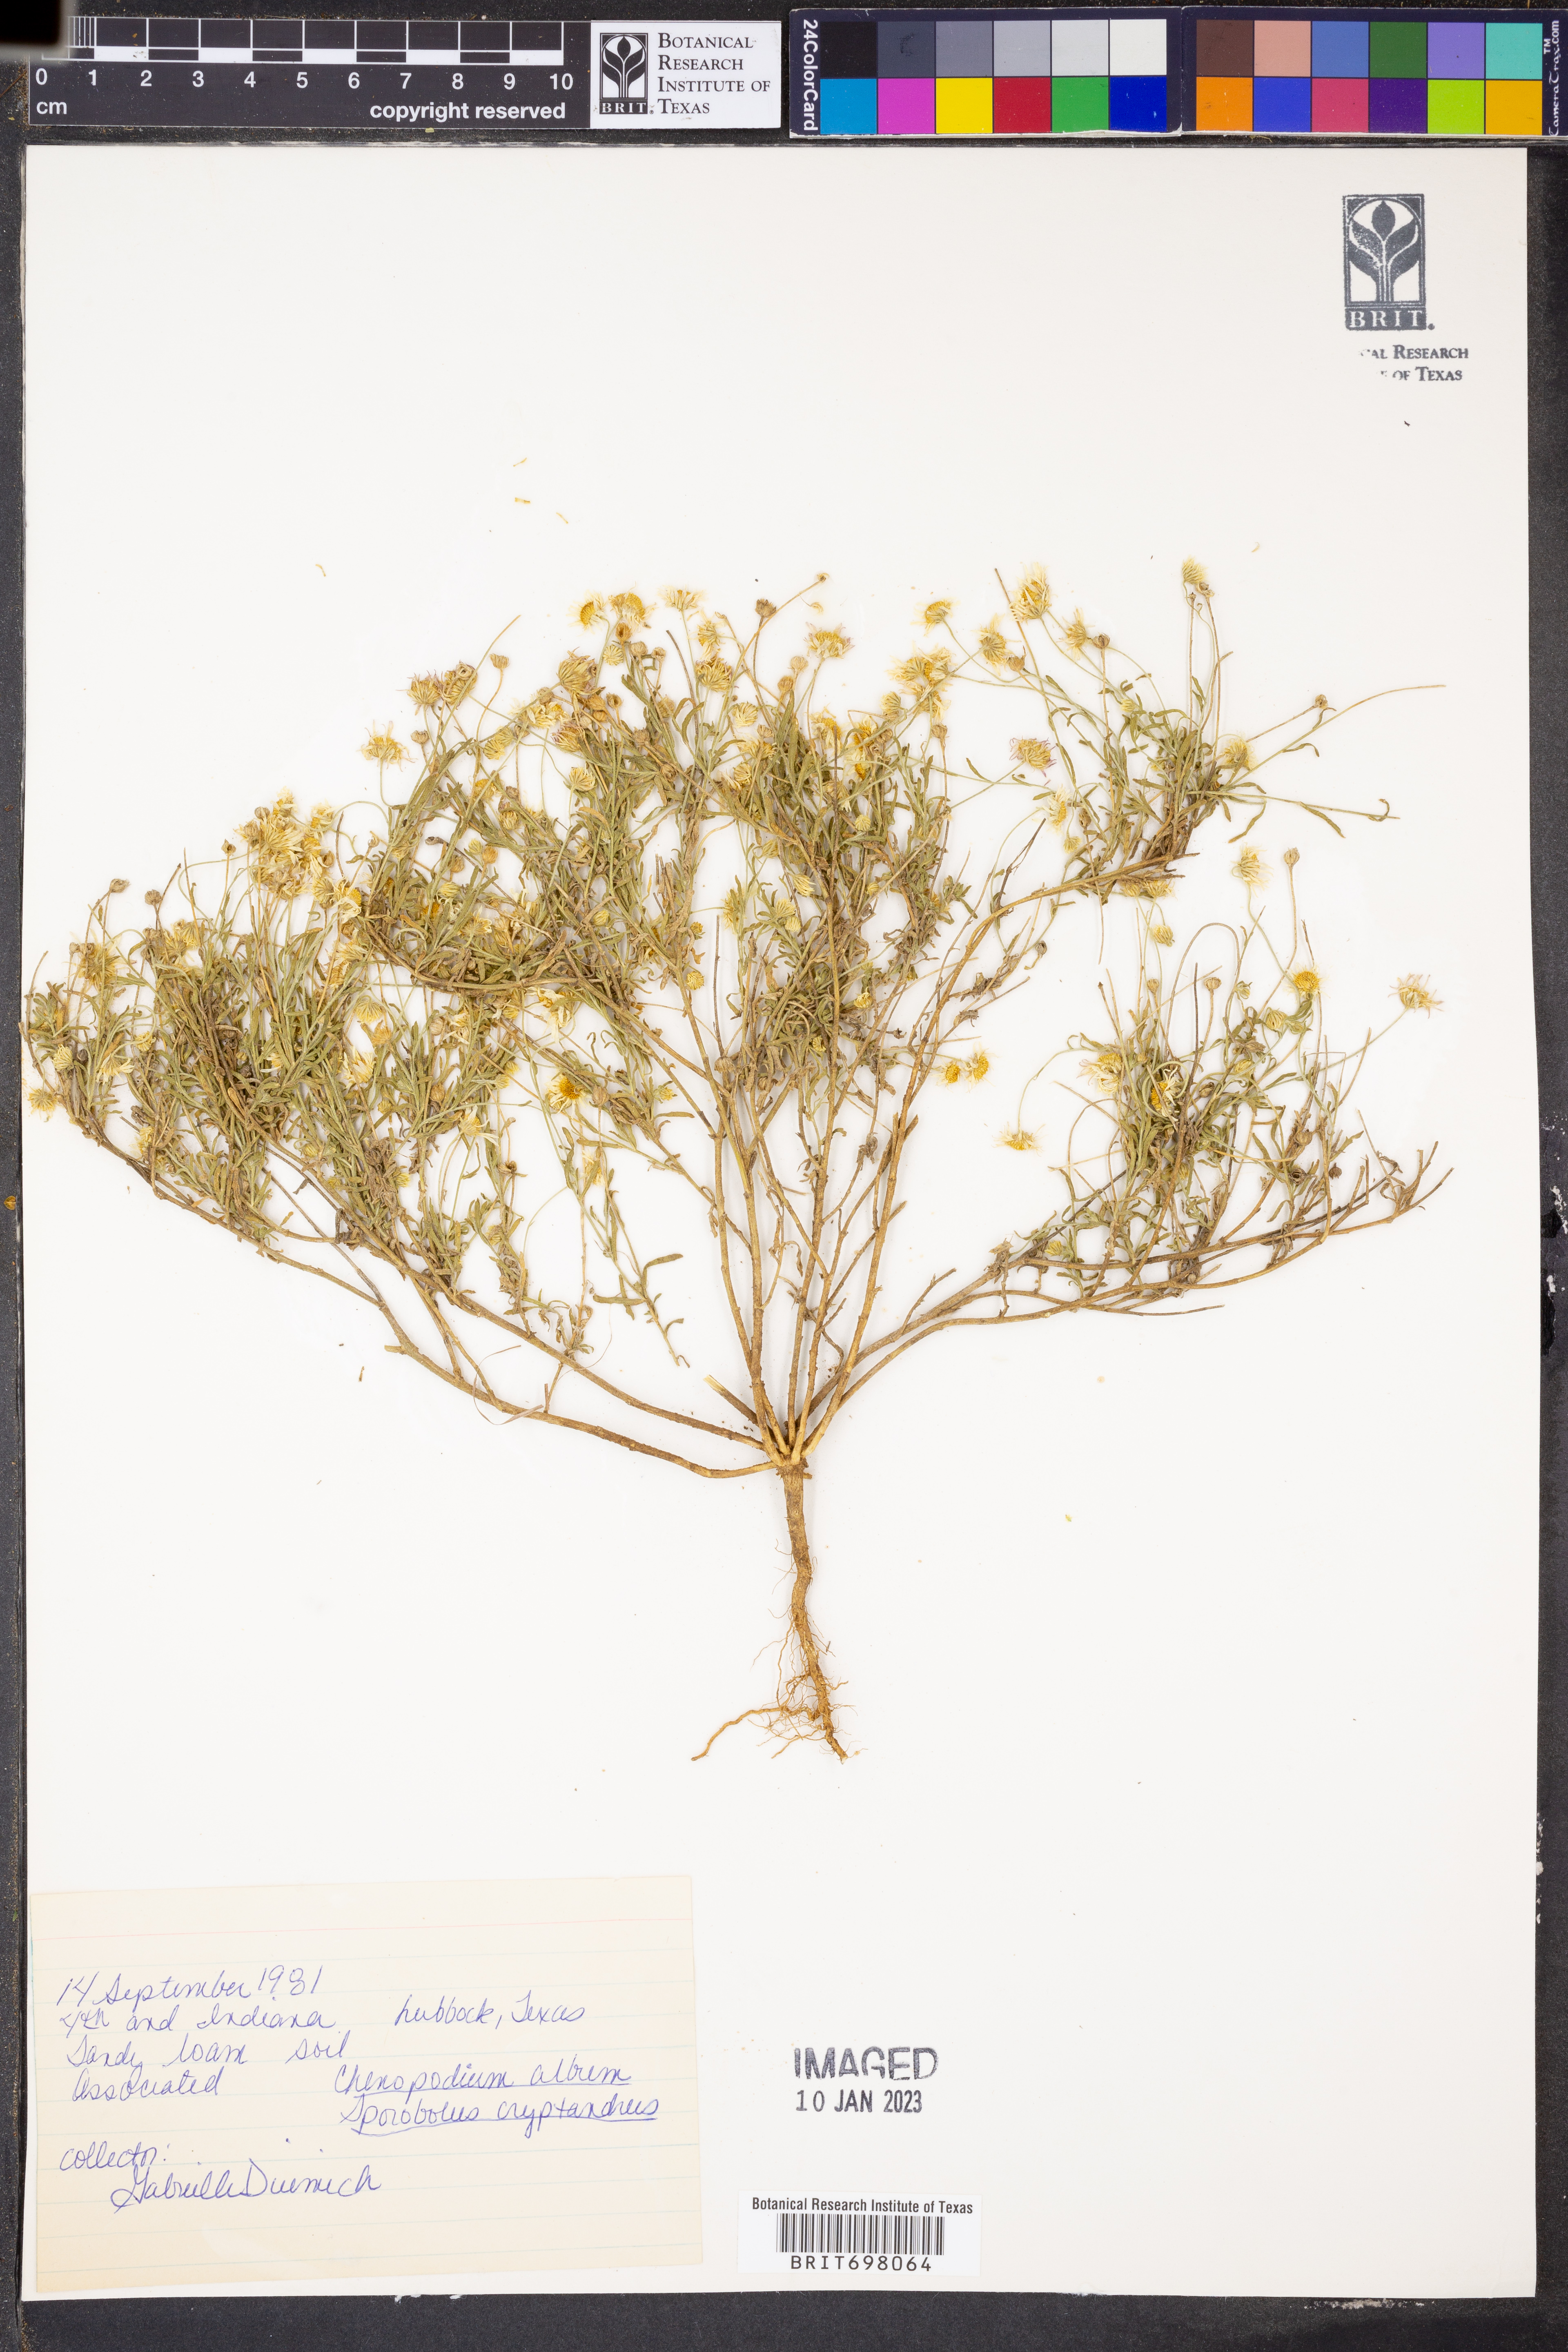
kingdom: Plantae
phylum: Tracheophyta
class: Magnoliopsida
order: Asterales
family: Asteraceae
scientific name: Asteraceae
